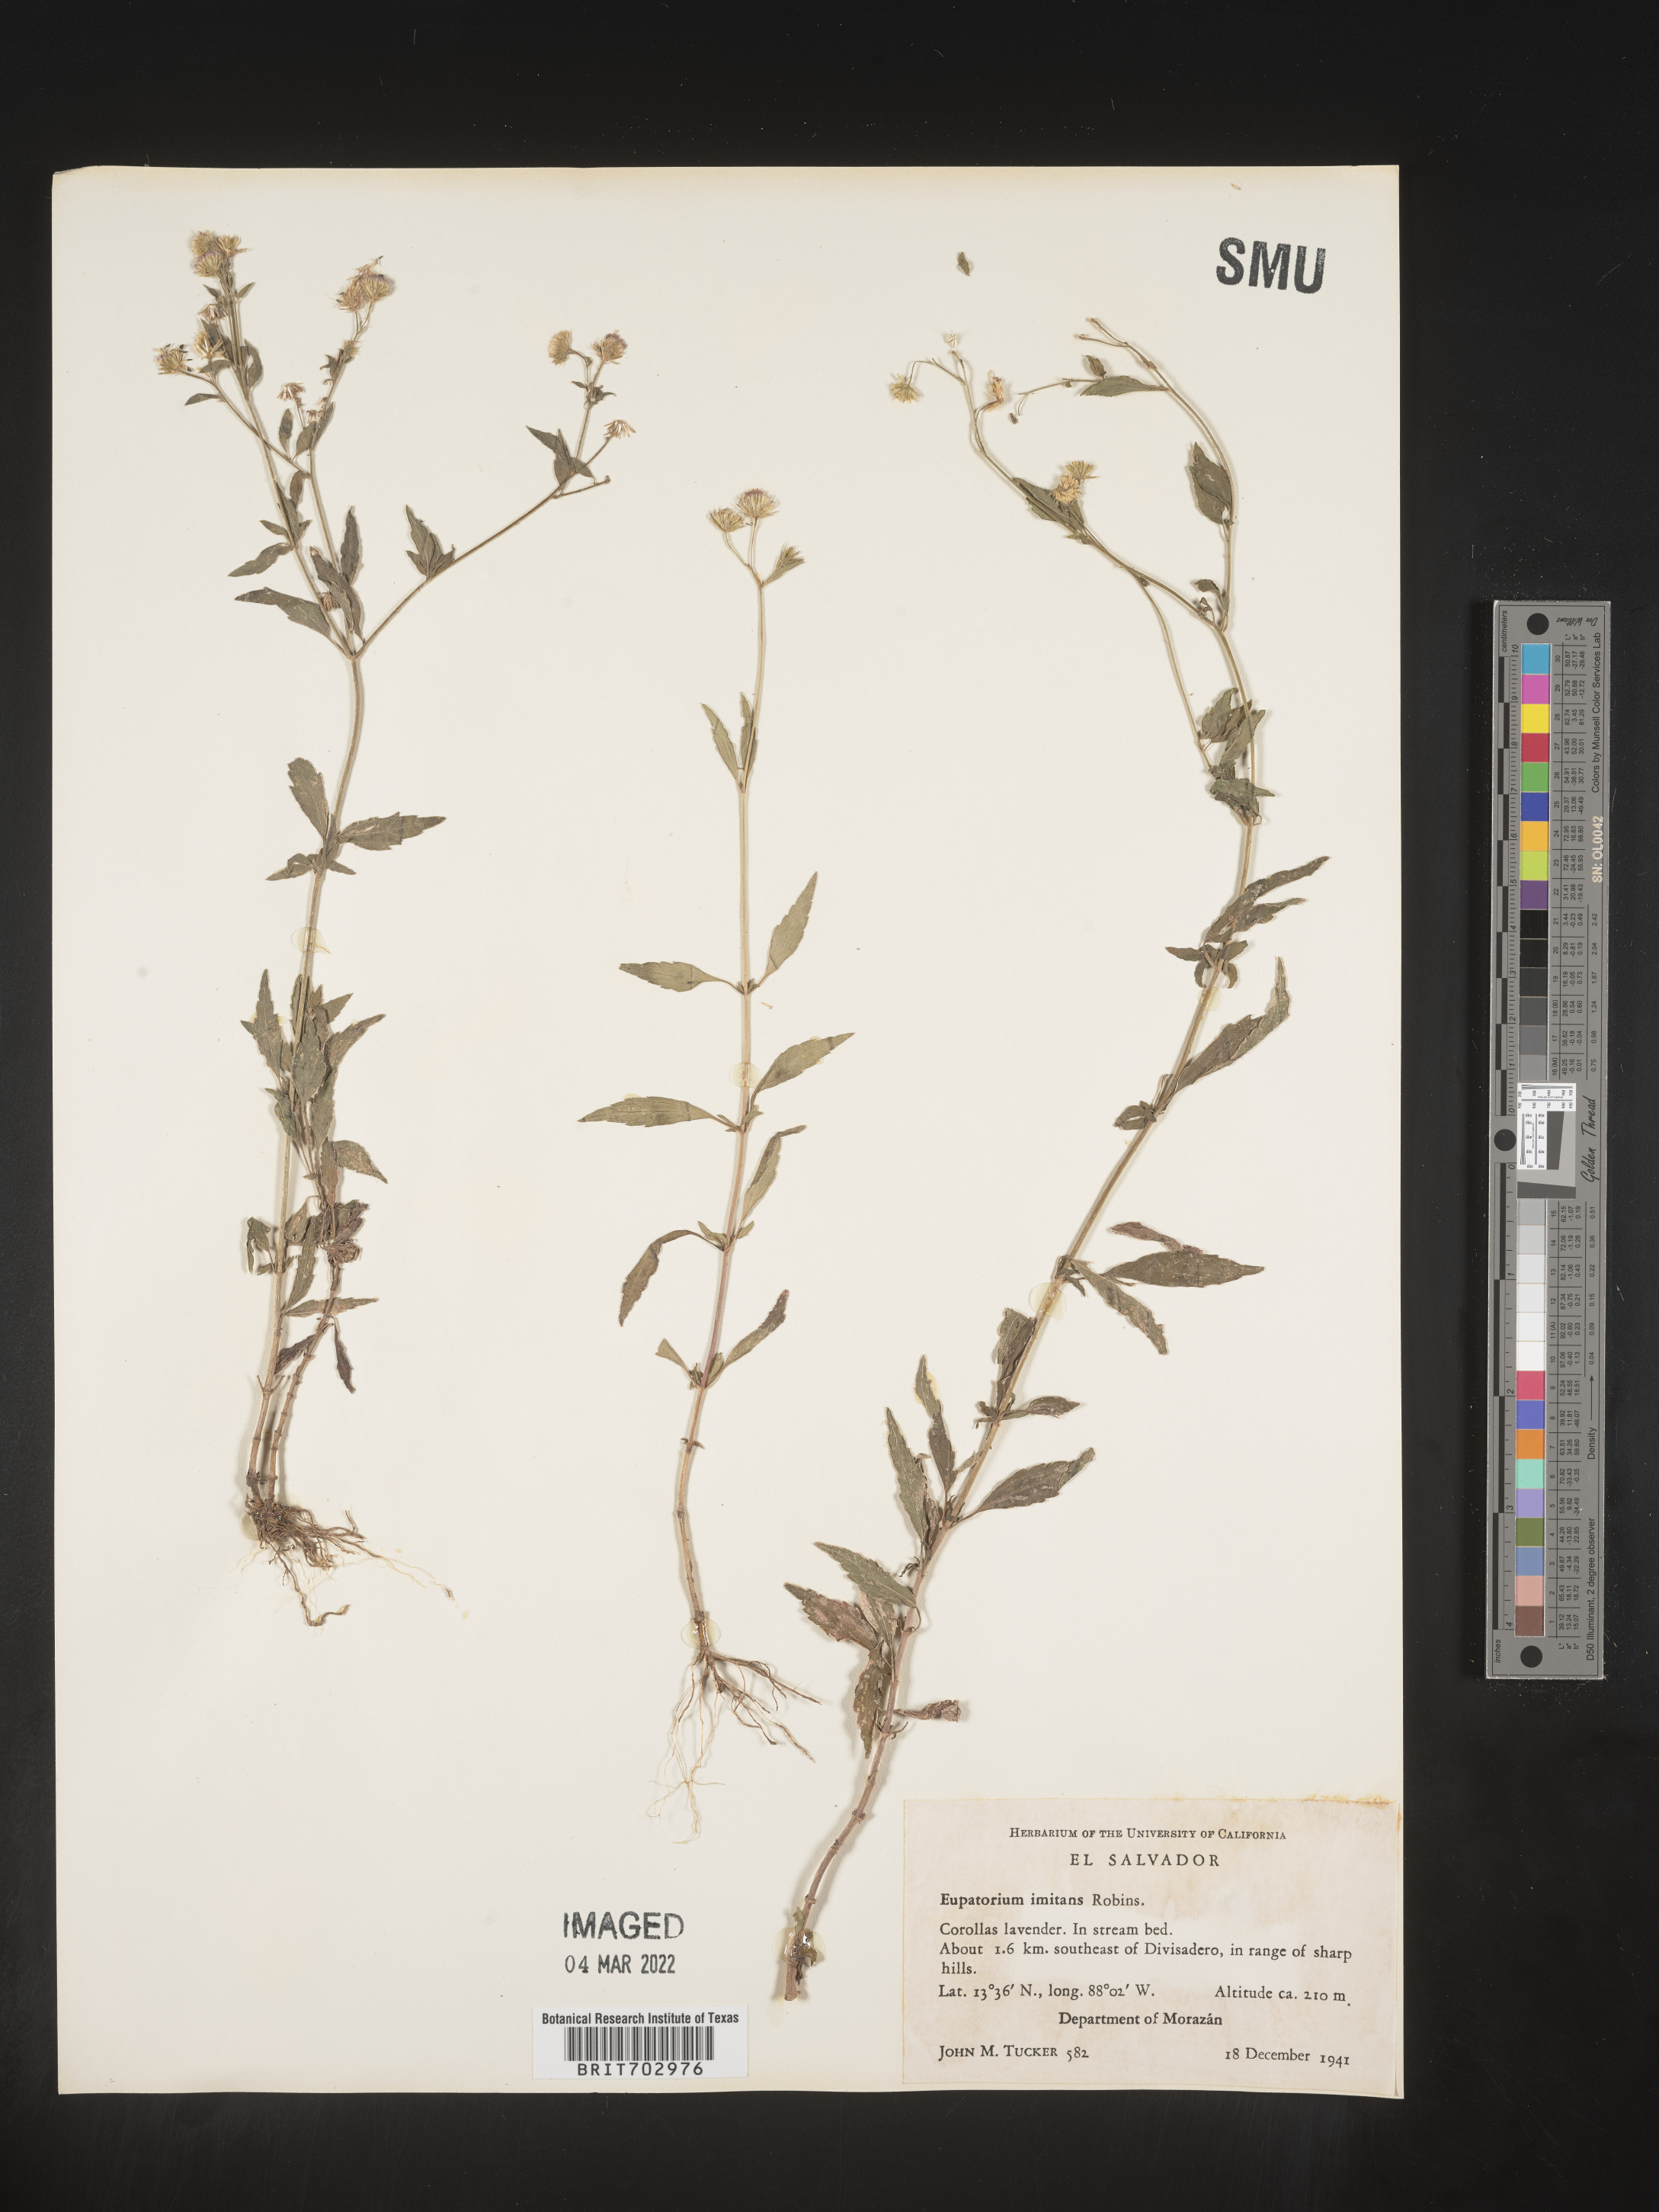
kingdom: Plantae
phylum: Tracheophyta
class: Magnoliopsida
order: Asterales
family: Asteraceae
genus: Eupatorium
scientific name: Eupatorium
